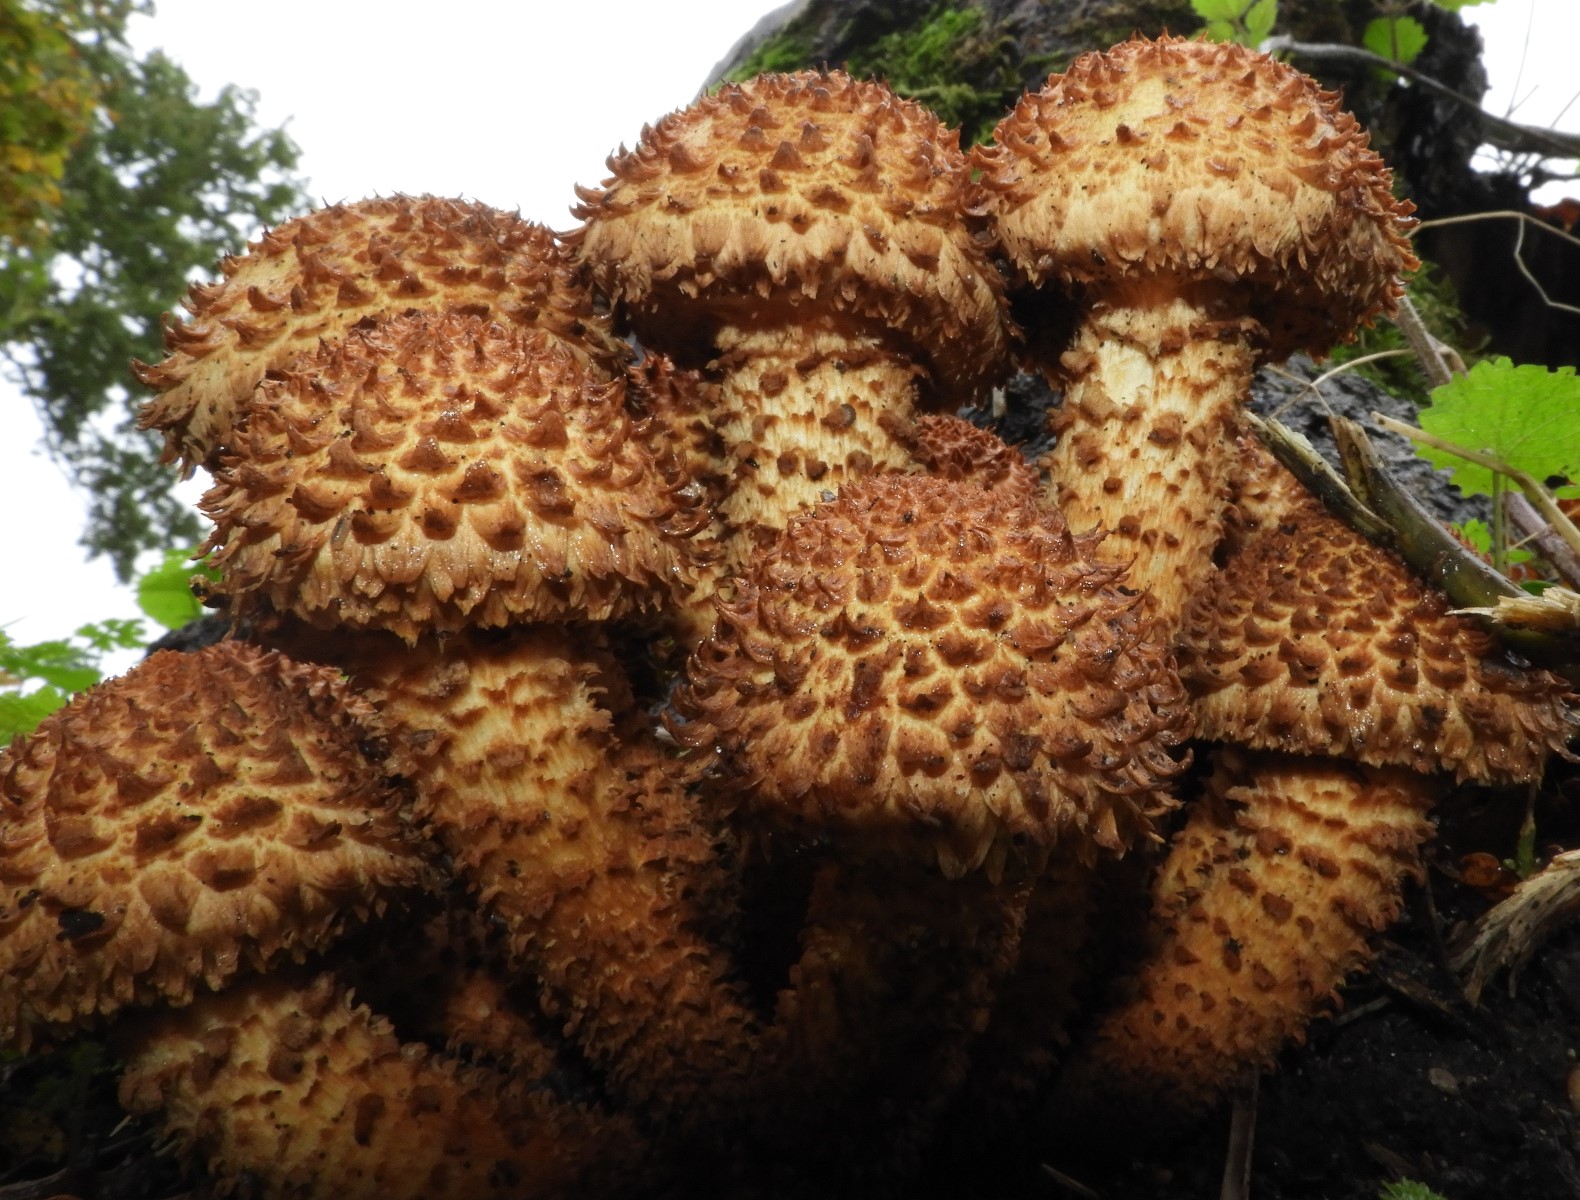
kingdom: Fungi
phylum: Basidiomycota
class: Agaricomycetes
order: Agaricales
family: Strophariaceae
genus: Pholiota
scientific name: Pholiota squarrosa
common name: krumskællet skælhat
